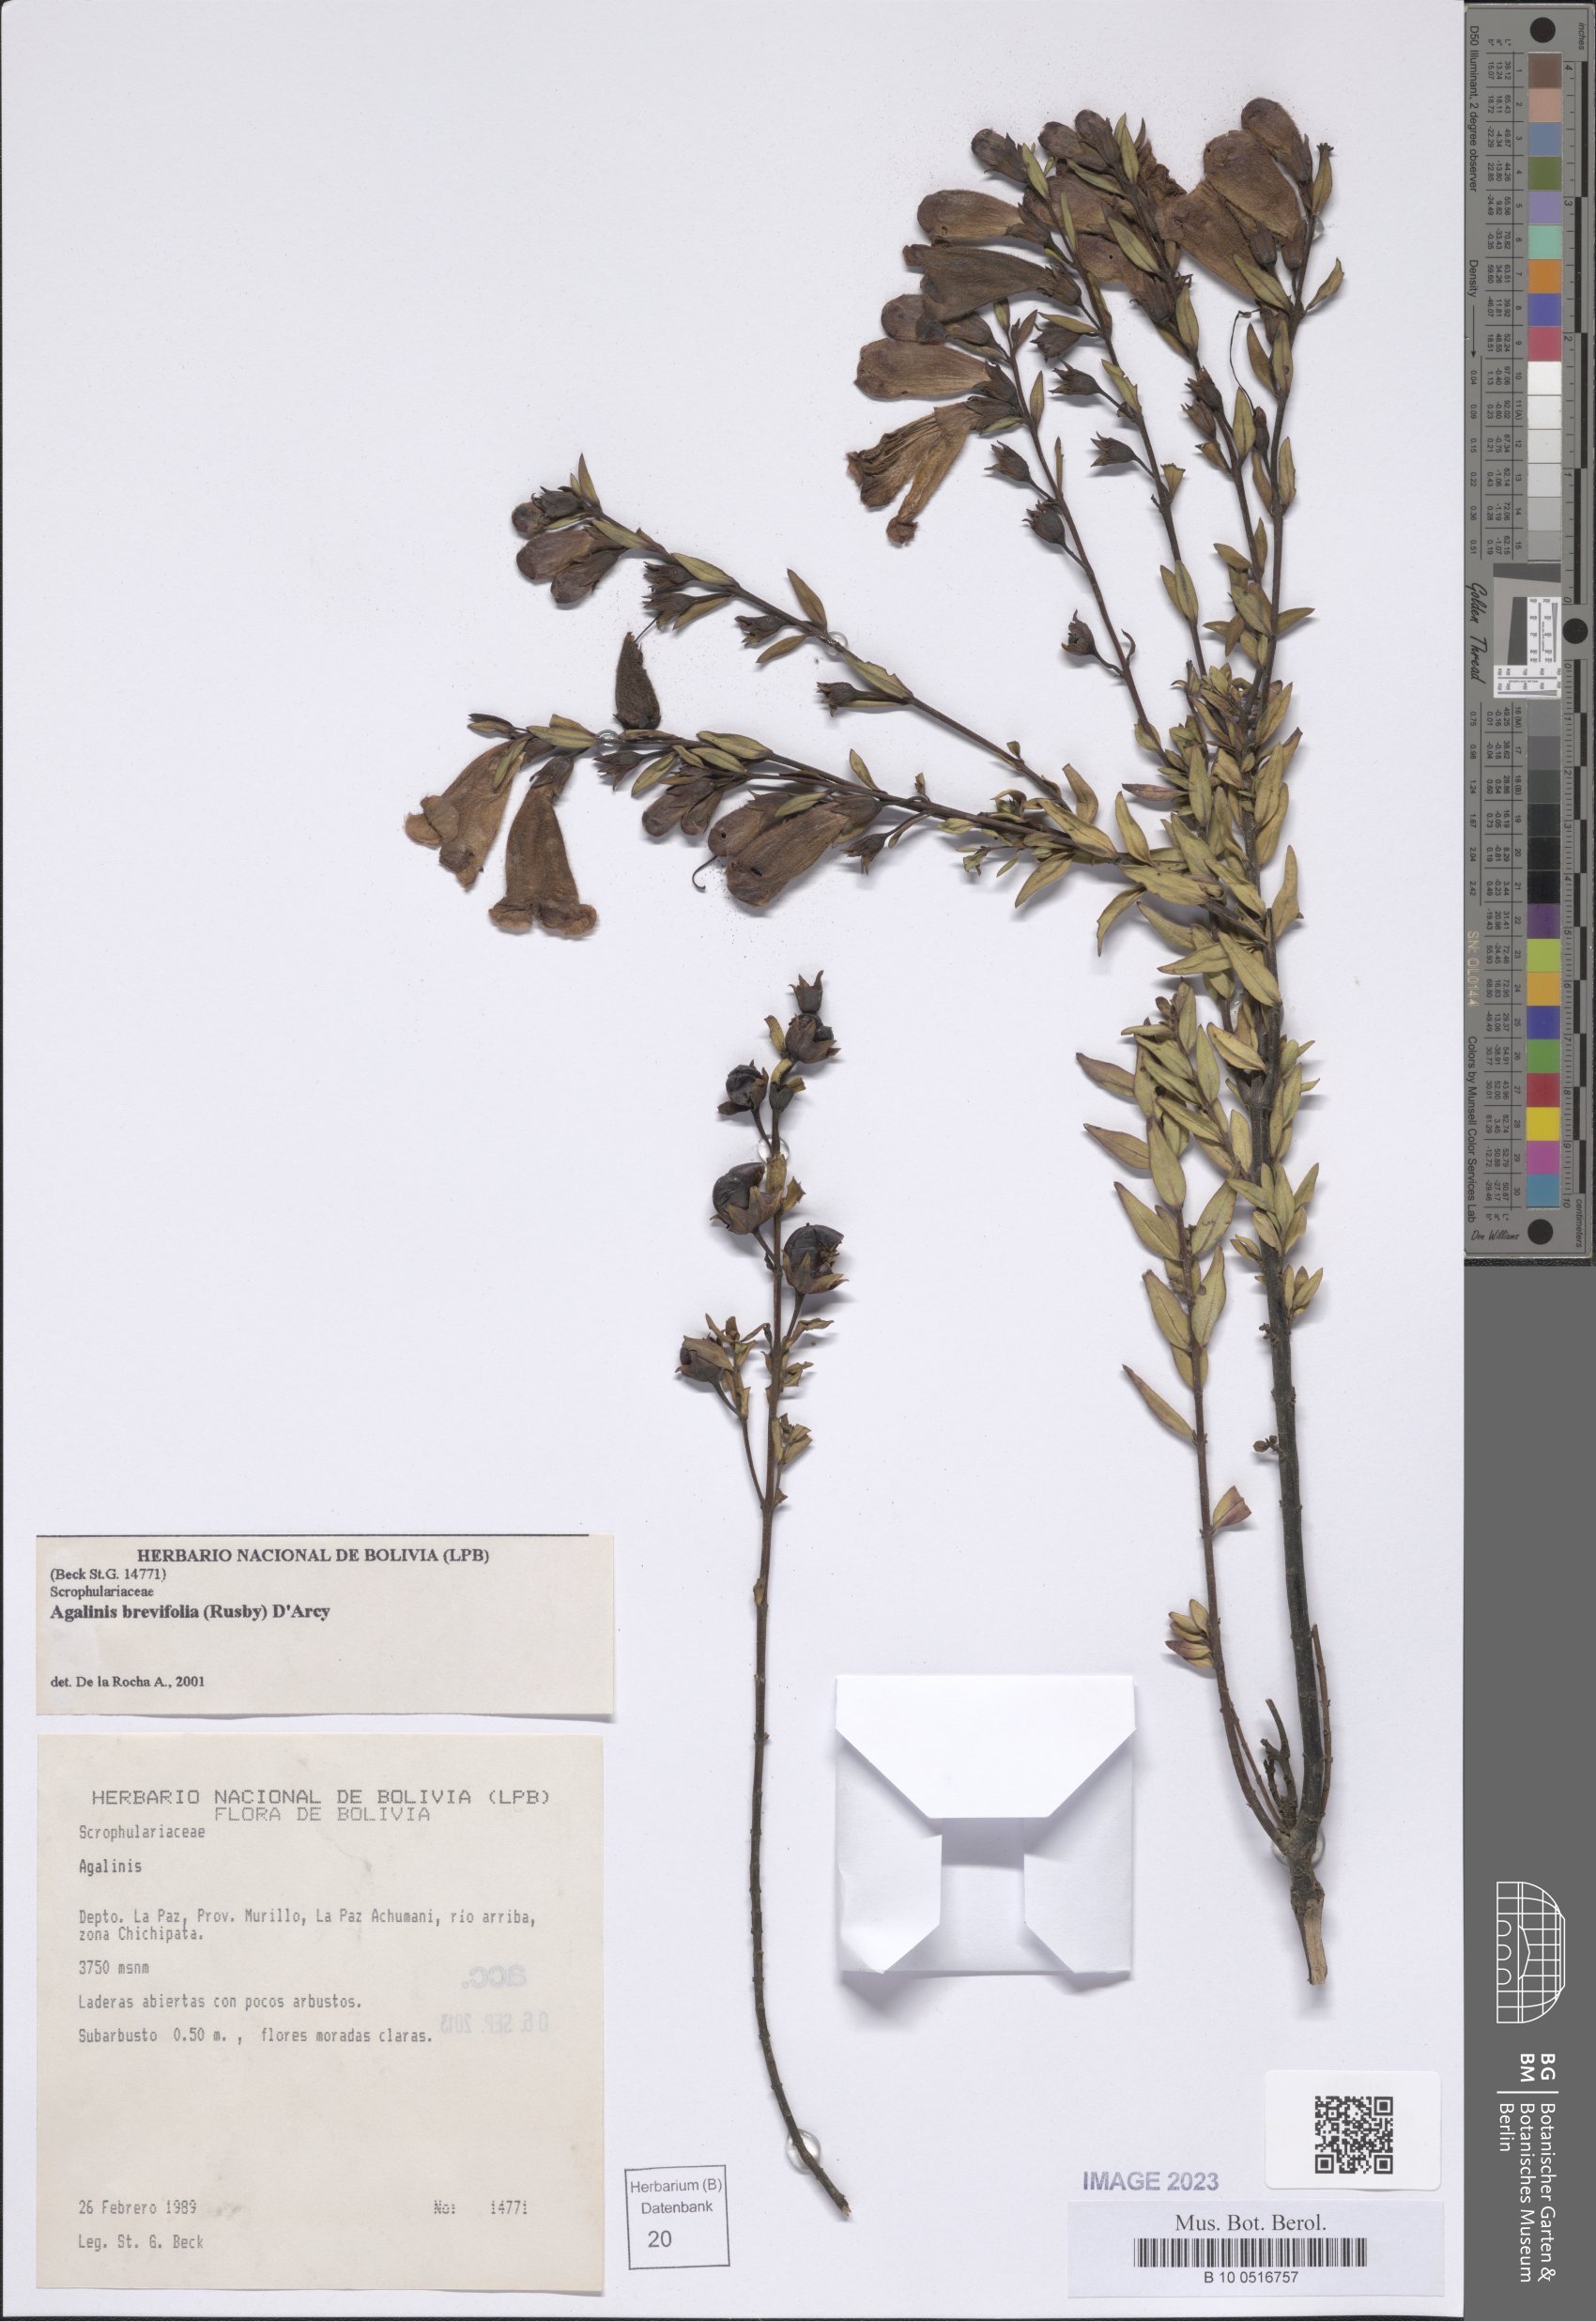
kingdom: Plantae
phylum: Tracheophyta
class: Magnoliopsida
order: Lamiales
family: Orobanchaceae
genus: Agalinis
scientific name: Agalinis brevifolia
